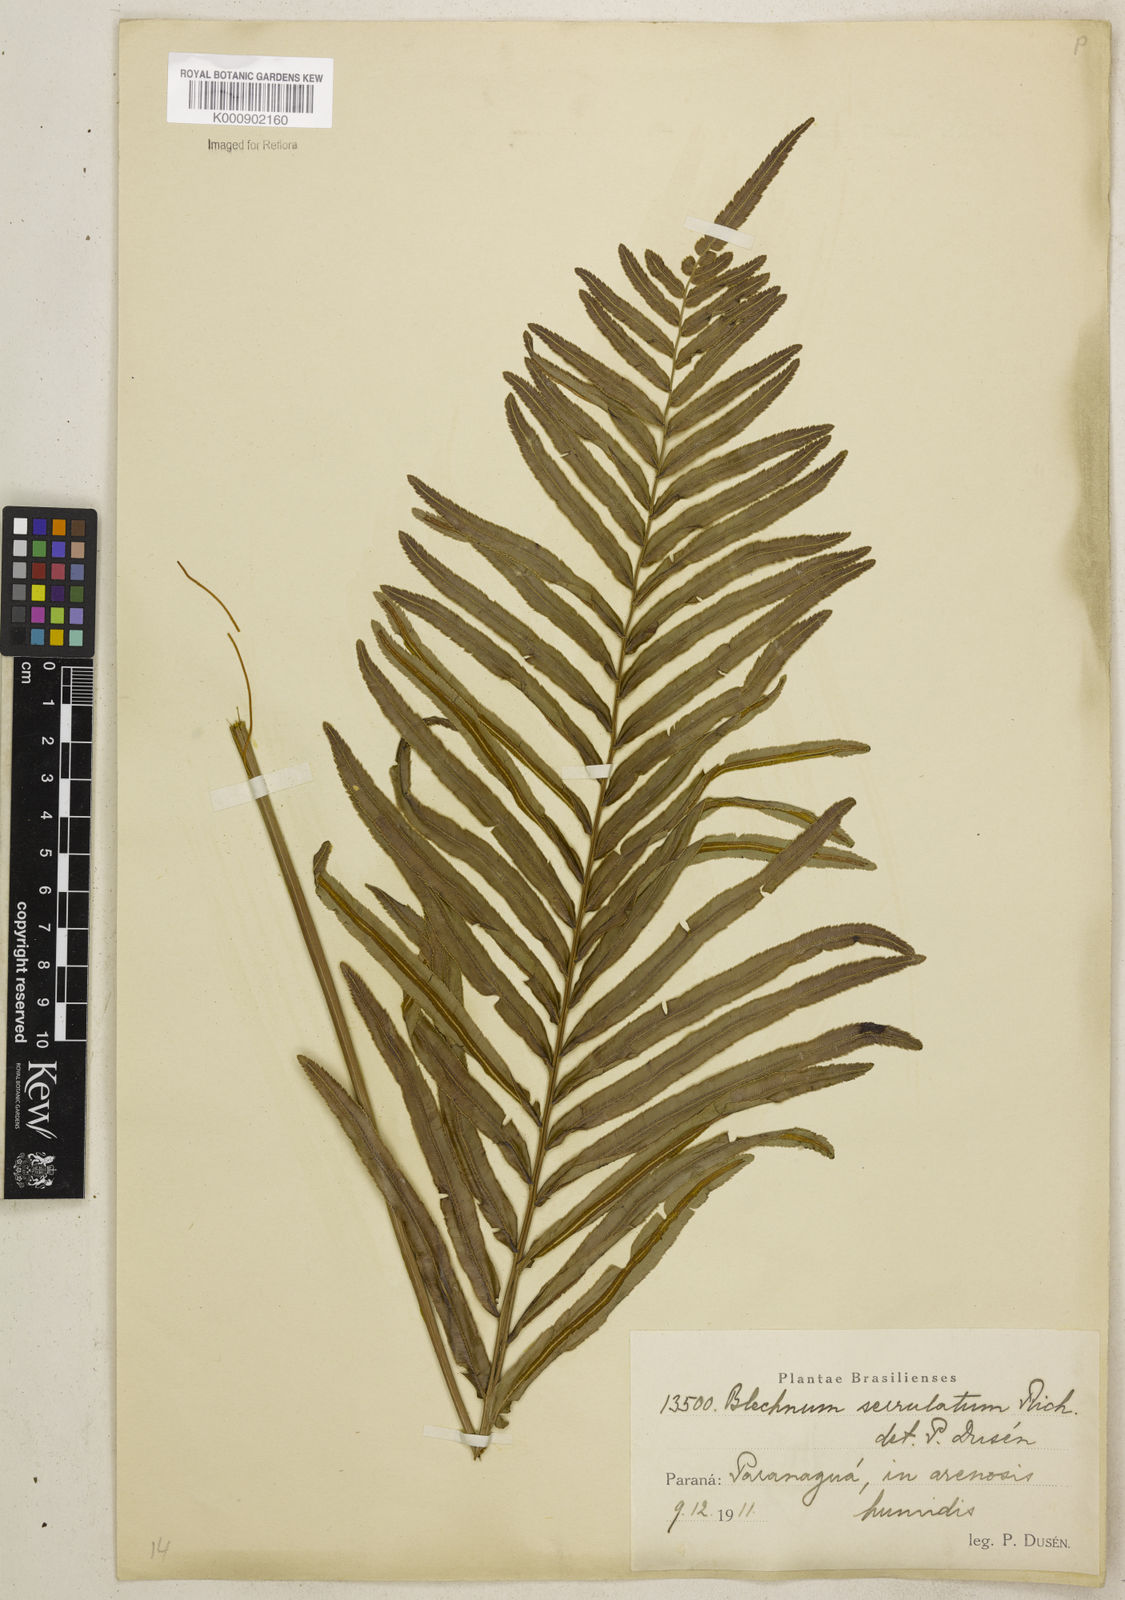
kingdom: Plantae
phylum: Tracheophyta
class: Polypodiopsida
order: Polypodiales
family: Blechnaceae
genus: Telmatoblechnum
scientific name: Telmatoblechnum serrulatum
